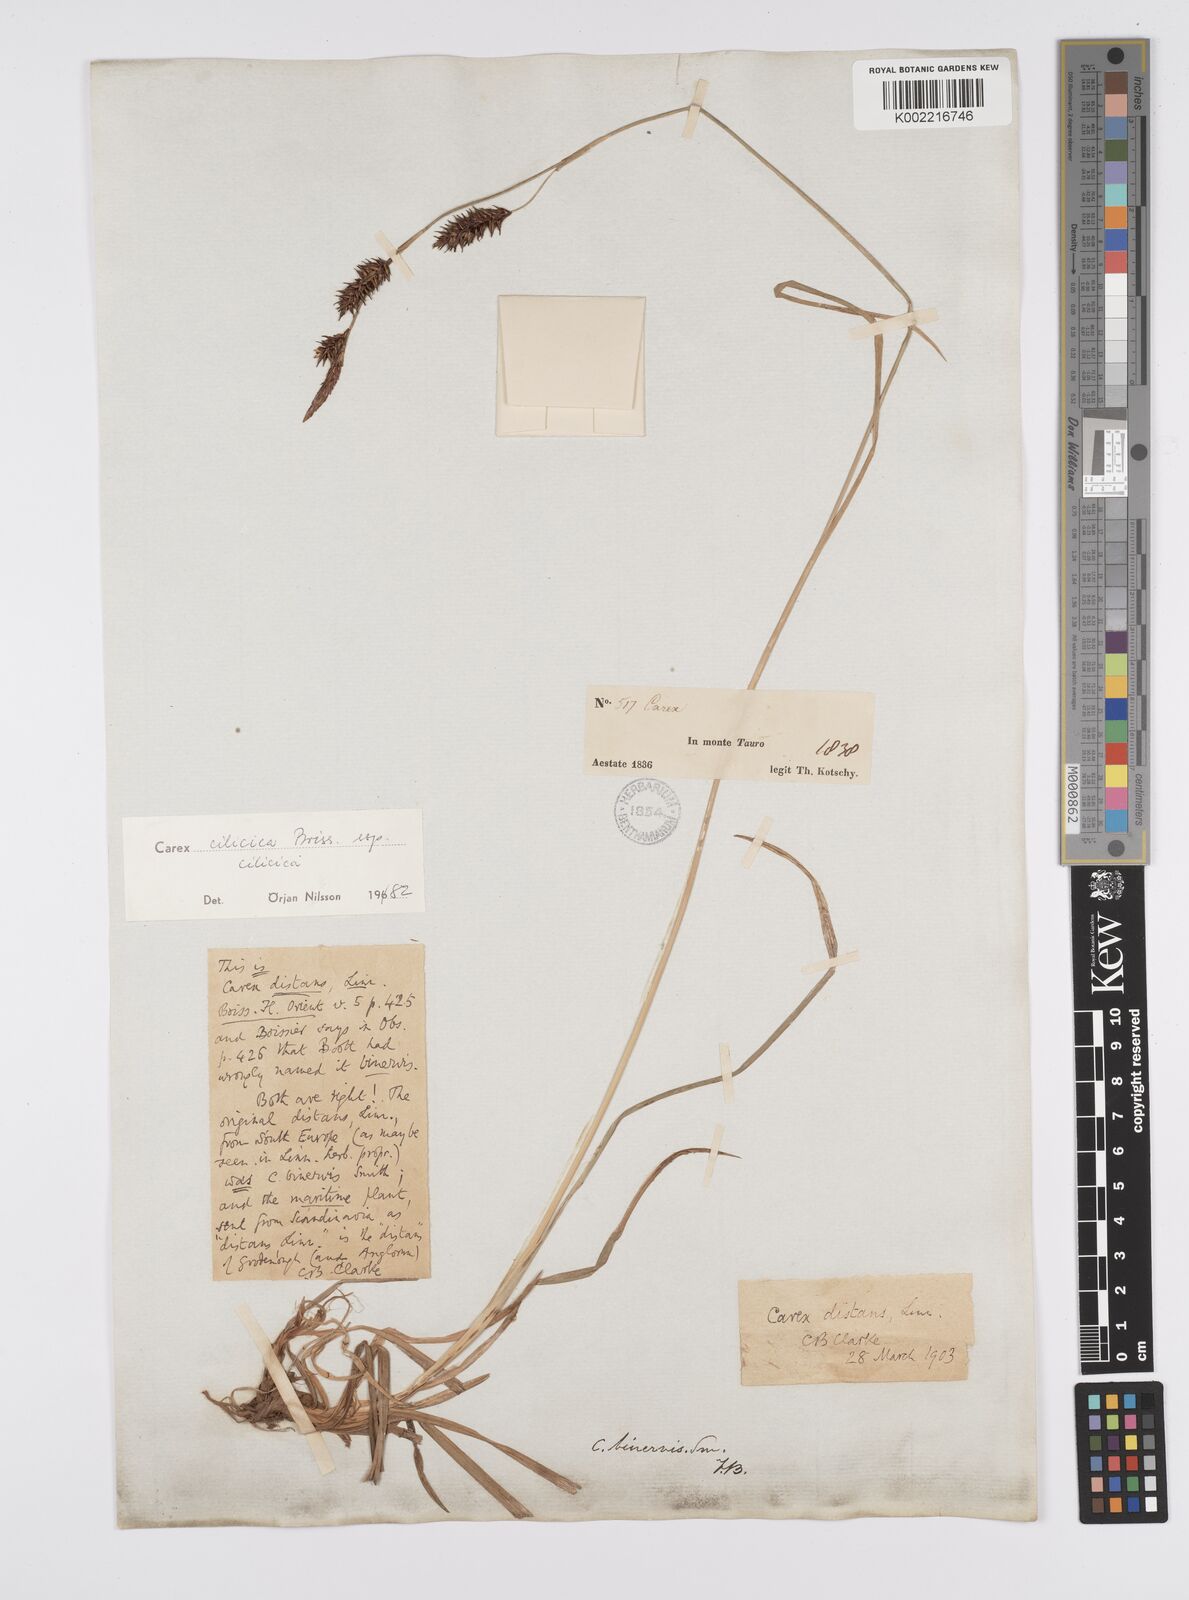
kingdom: Plantae
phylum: Tracheophyta
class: Liliopsida
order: Poales
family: Cyperaceae
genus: Carex
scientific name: Carex cilicica
